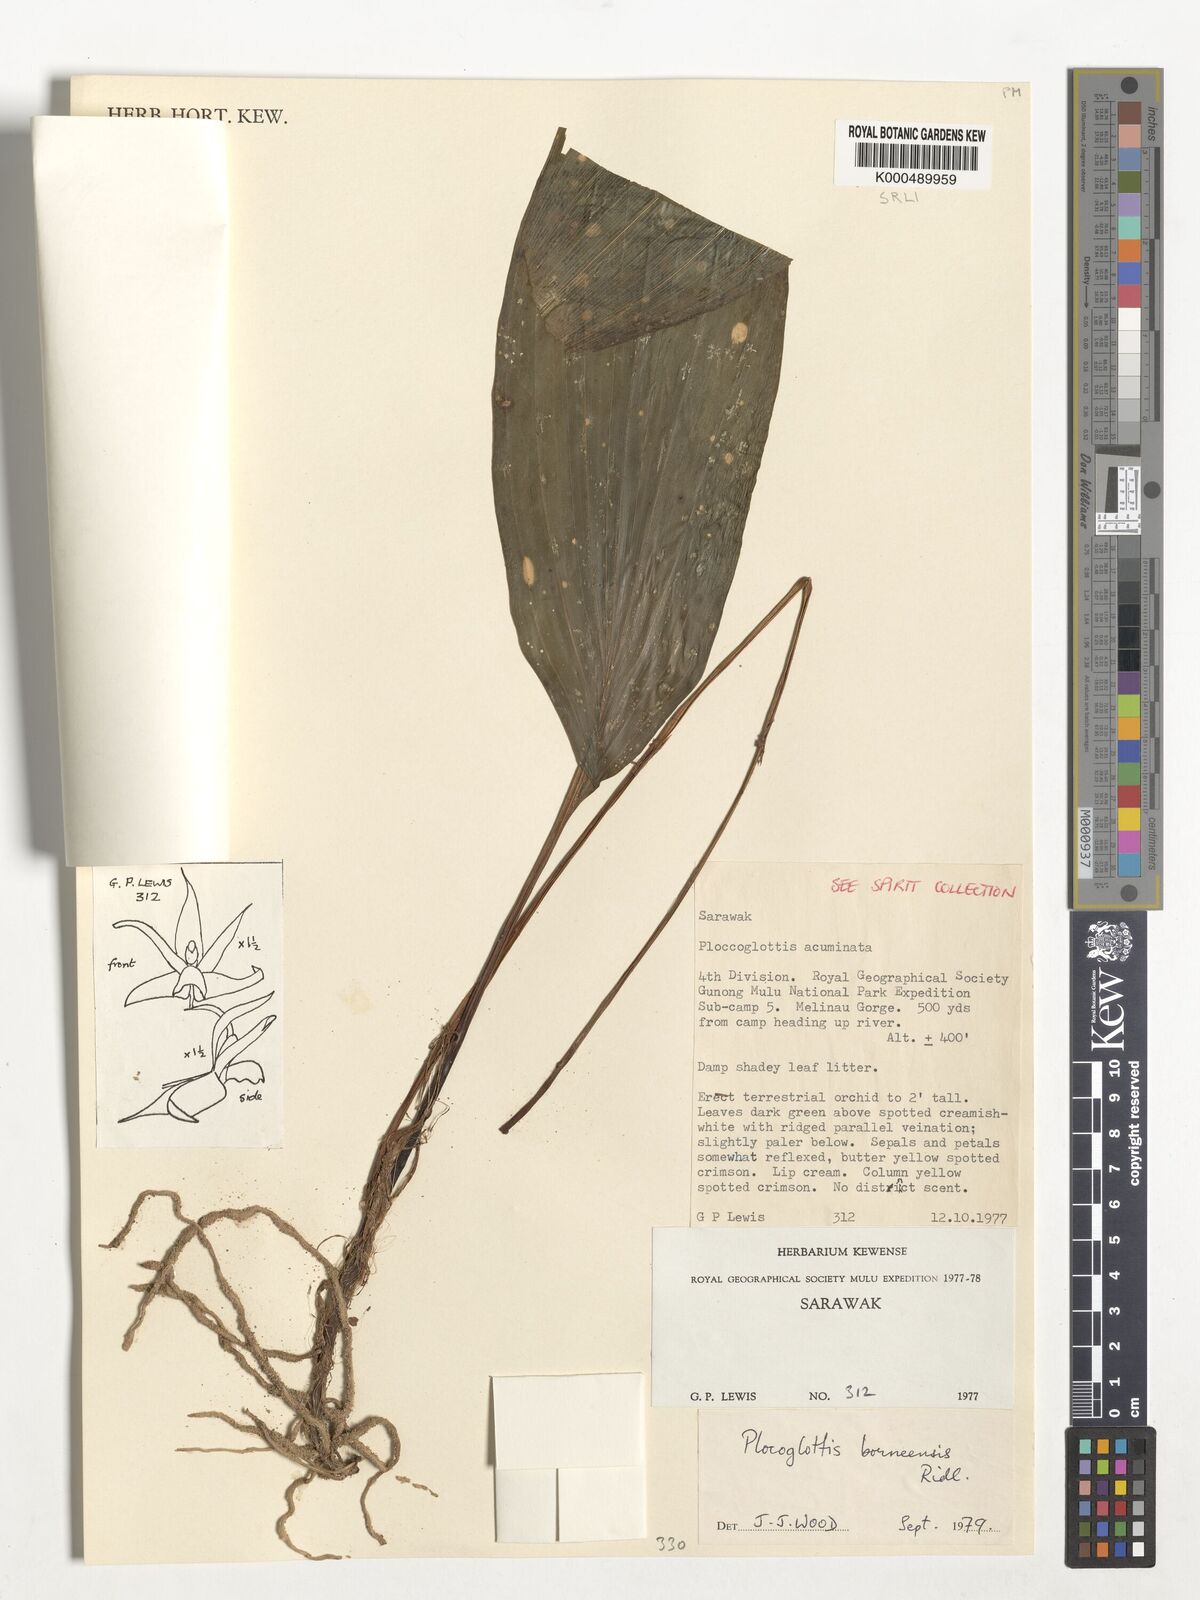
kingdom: Plantae
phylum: Tracheophyta
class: Liliopsida
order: Asparagales
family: Orchidaceae
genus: Plocoglottis
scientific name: Plocoglottis borneensis
